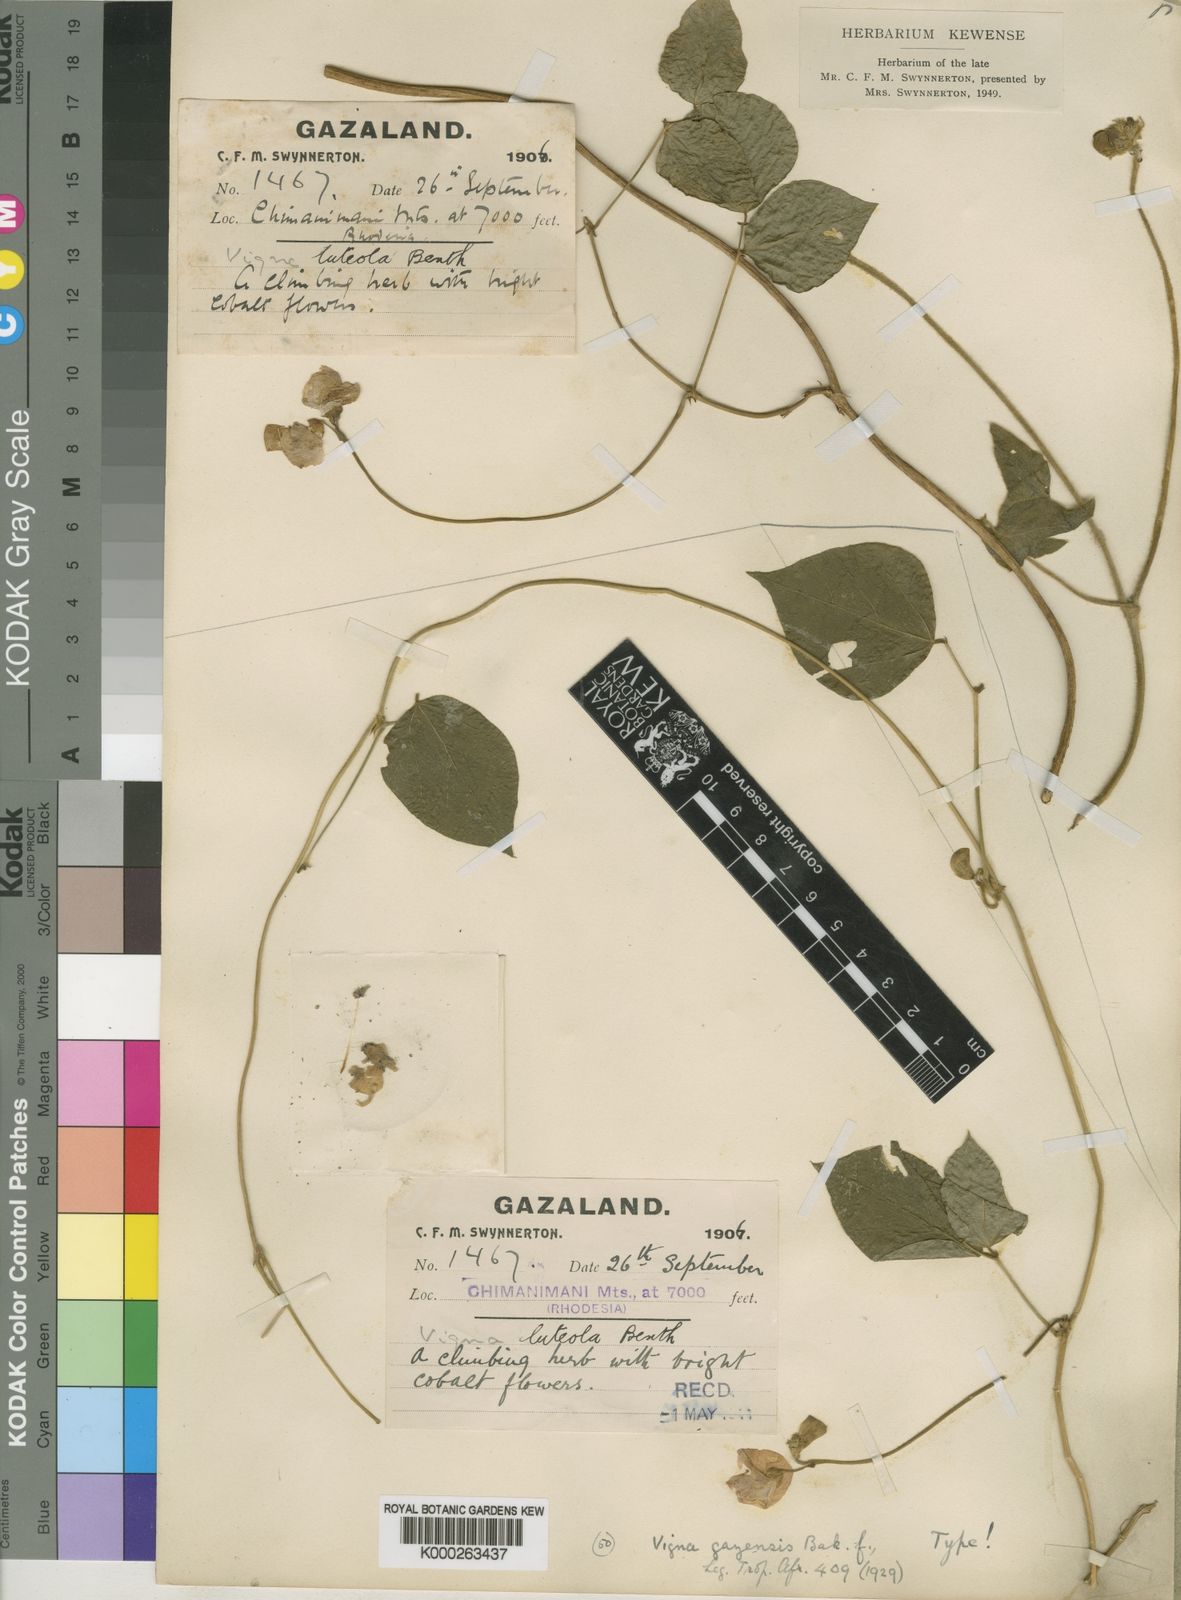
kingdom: Plantae
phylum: Tracheophyta
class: Magnoliopsida
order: Fabales
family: Fabaceae
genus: Vigna
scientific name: Vigna
